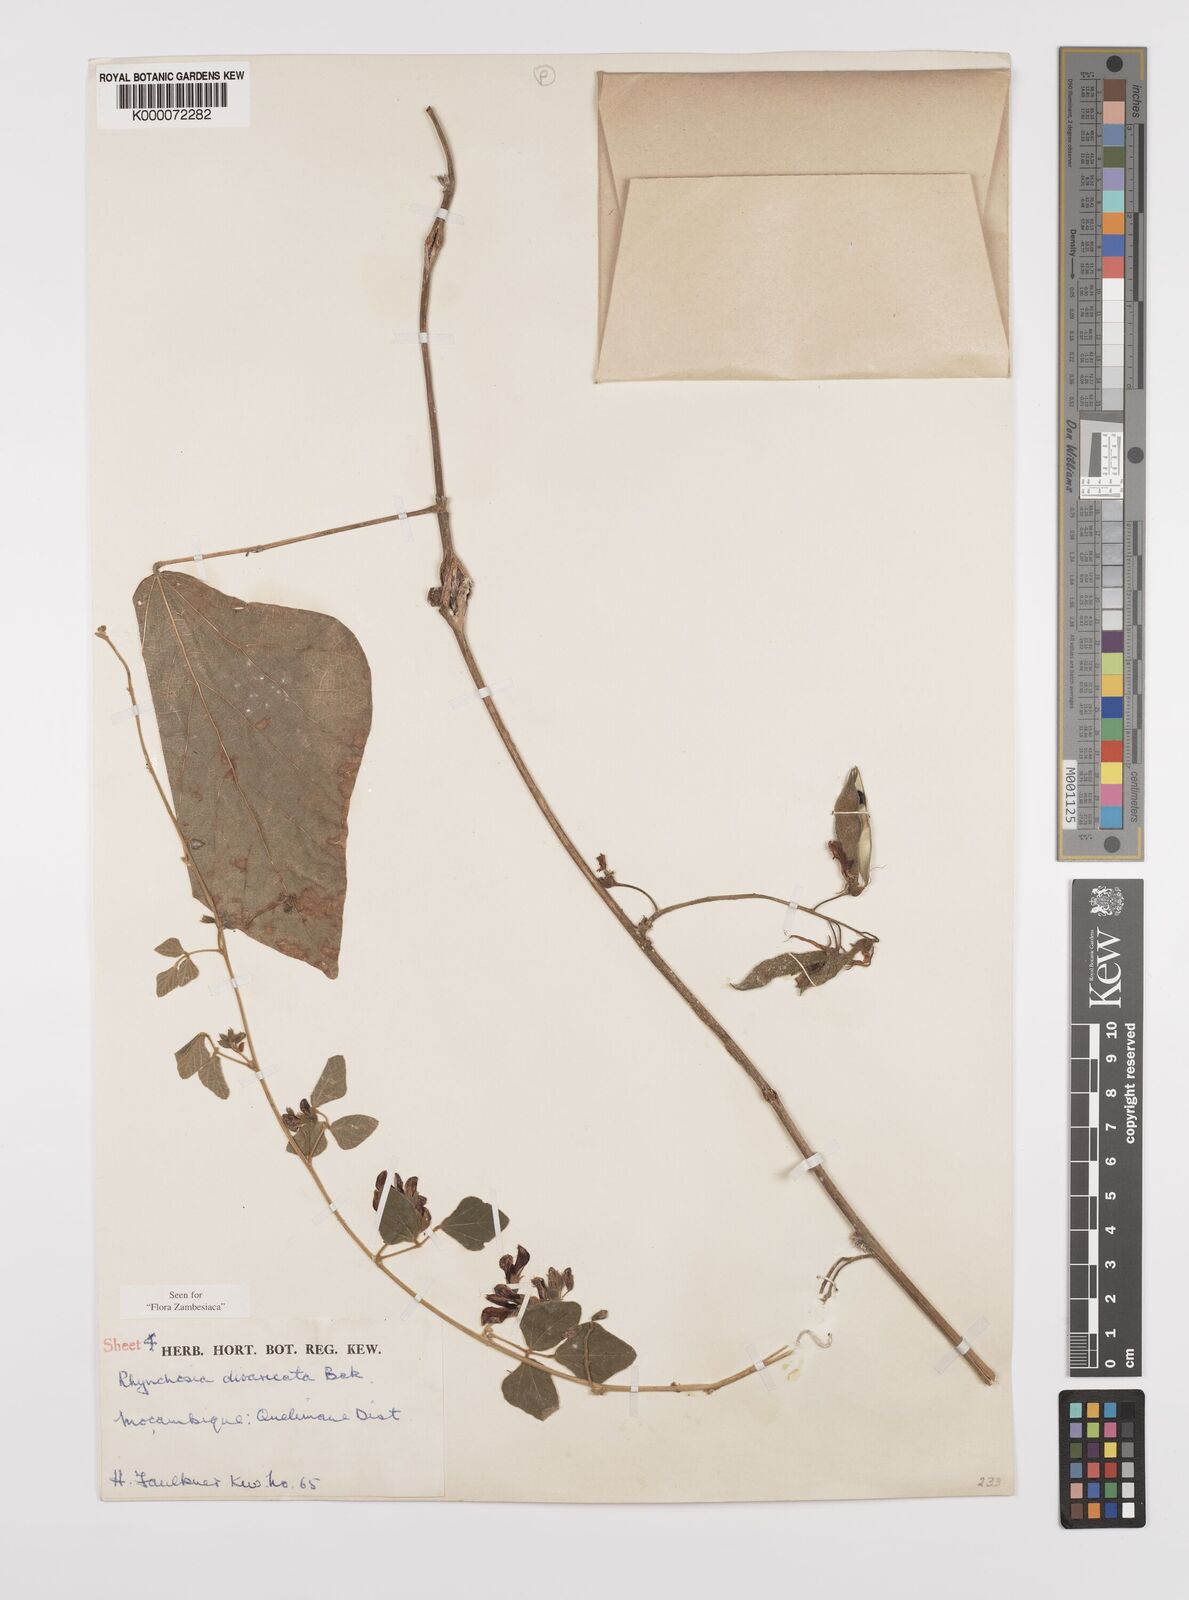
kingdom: Plantae
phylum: Tracheophyta
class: Magnoliopsida
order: Fabales
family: Fabaceae
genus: Rhynchosia
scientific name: Rhynchosia divaricata
